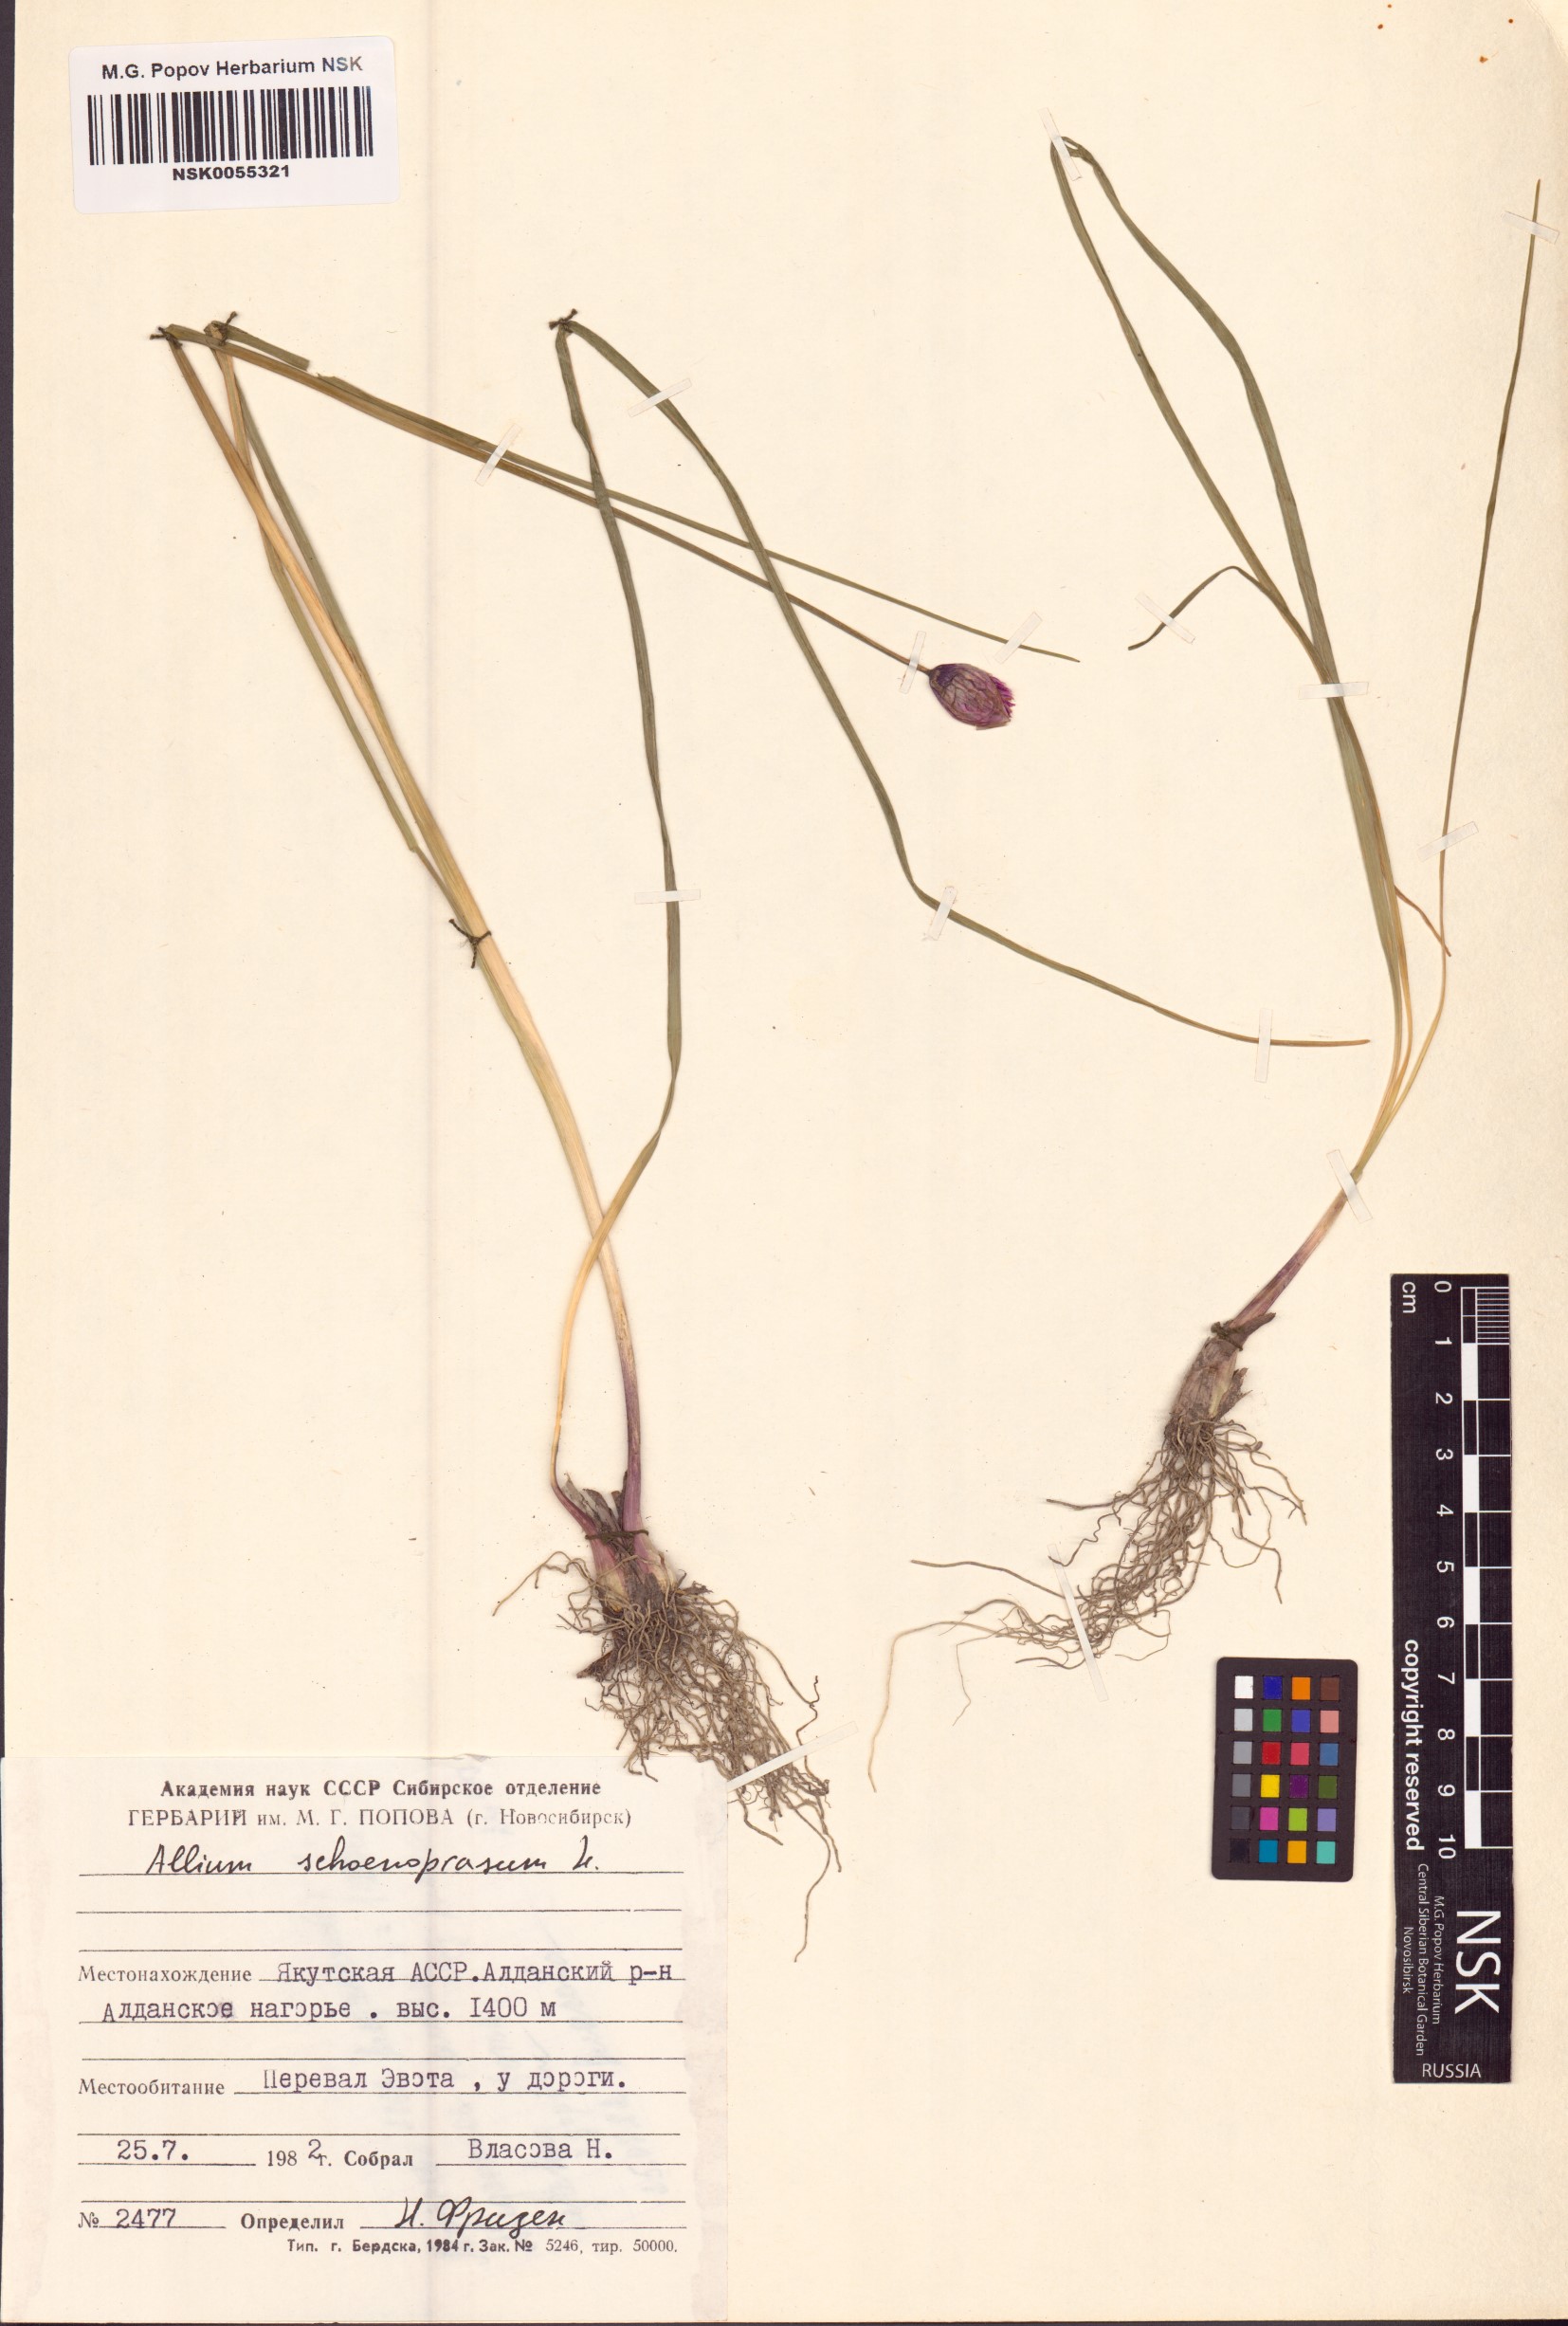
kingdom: Plantae
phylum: Tracheophyta
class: Liliopsida
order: Asparagales
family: Amaryllidaceae
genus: Allium
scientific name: Allium schoenoprasum
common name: Chives
